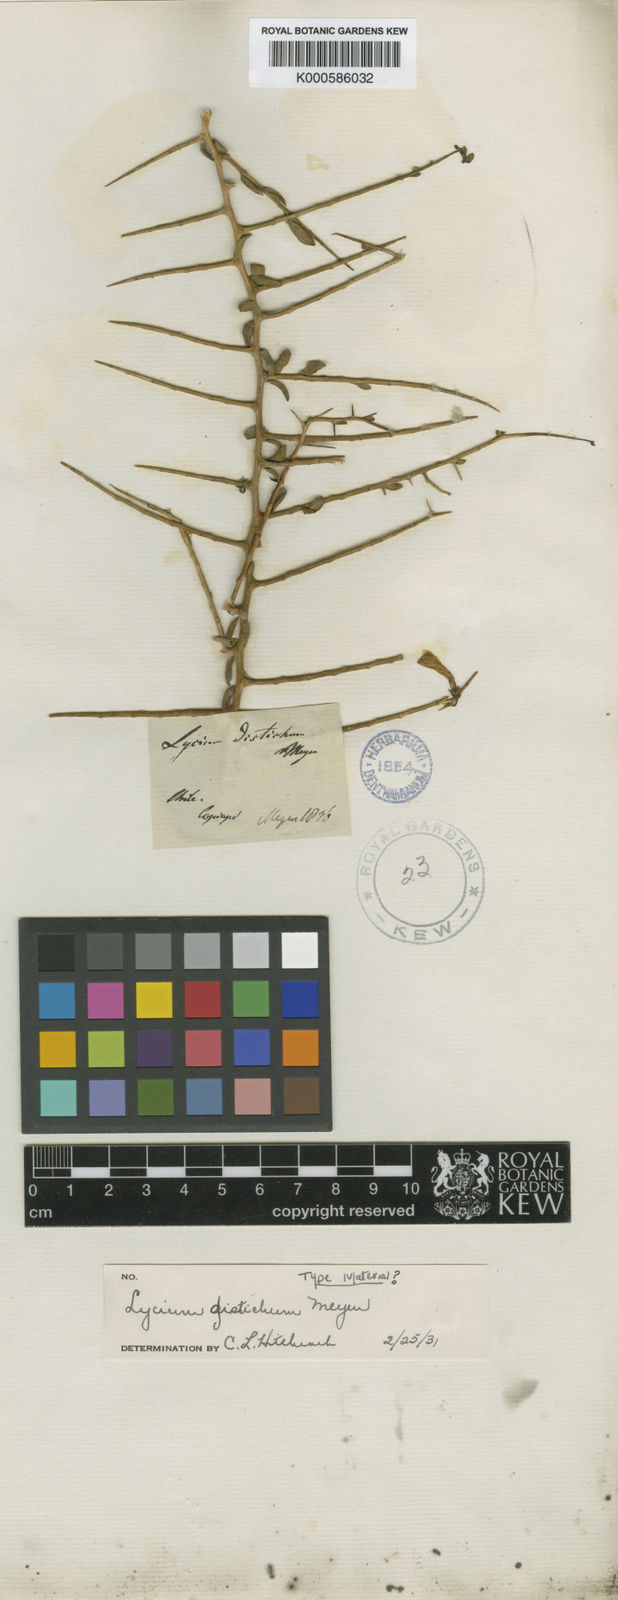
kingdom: Plantae
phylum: Tracheophyta
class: Magnoliopsida
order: Solanales
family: Solanaceae
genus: Lycium
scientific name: Lycium distichum
